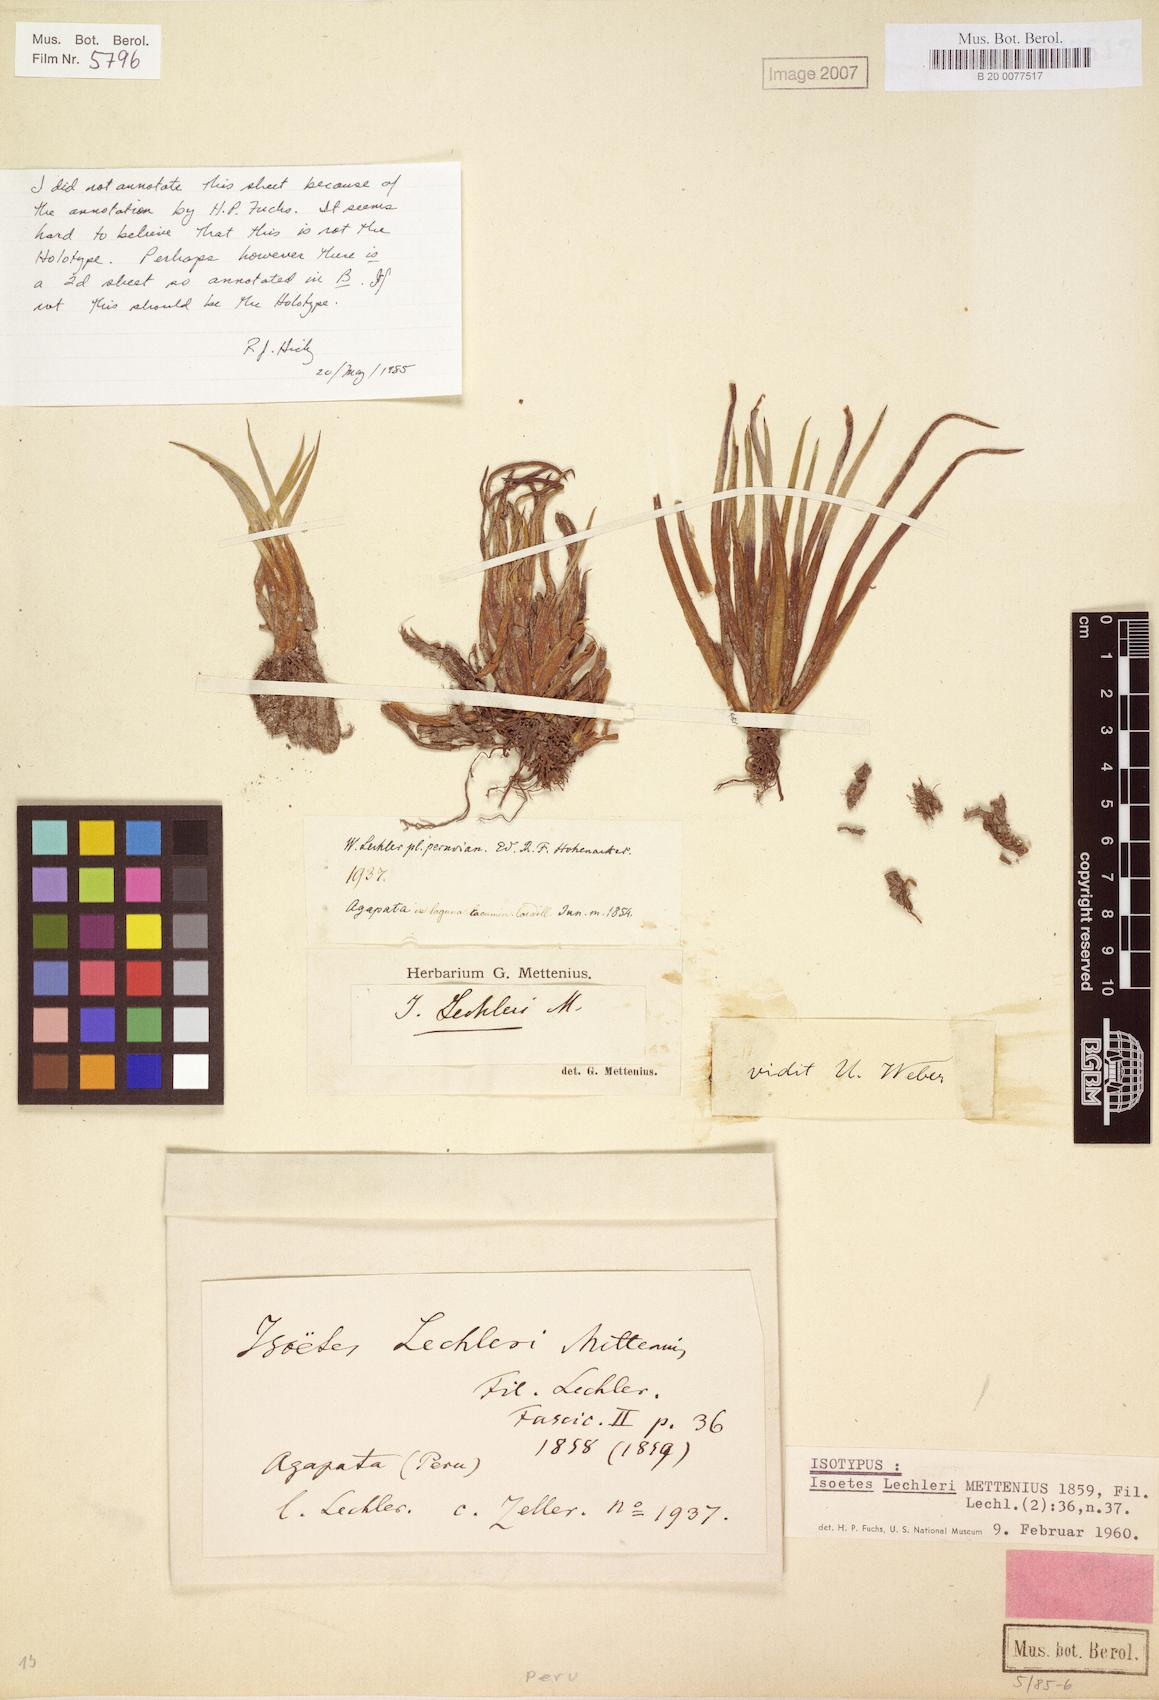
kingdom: Plantae
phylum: Tracheophyta
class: Lycopodiopsida
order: Isoetales
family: Isoetaceae
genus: Isoetes
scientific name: Isoetes lechleri
